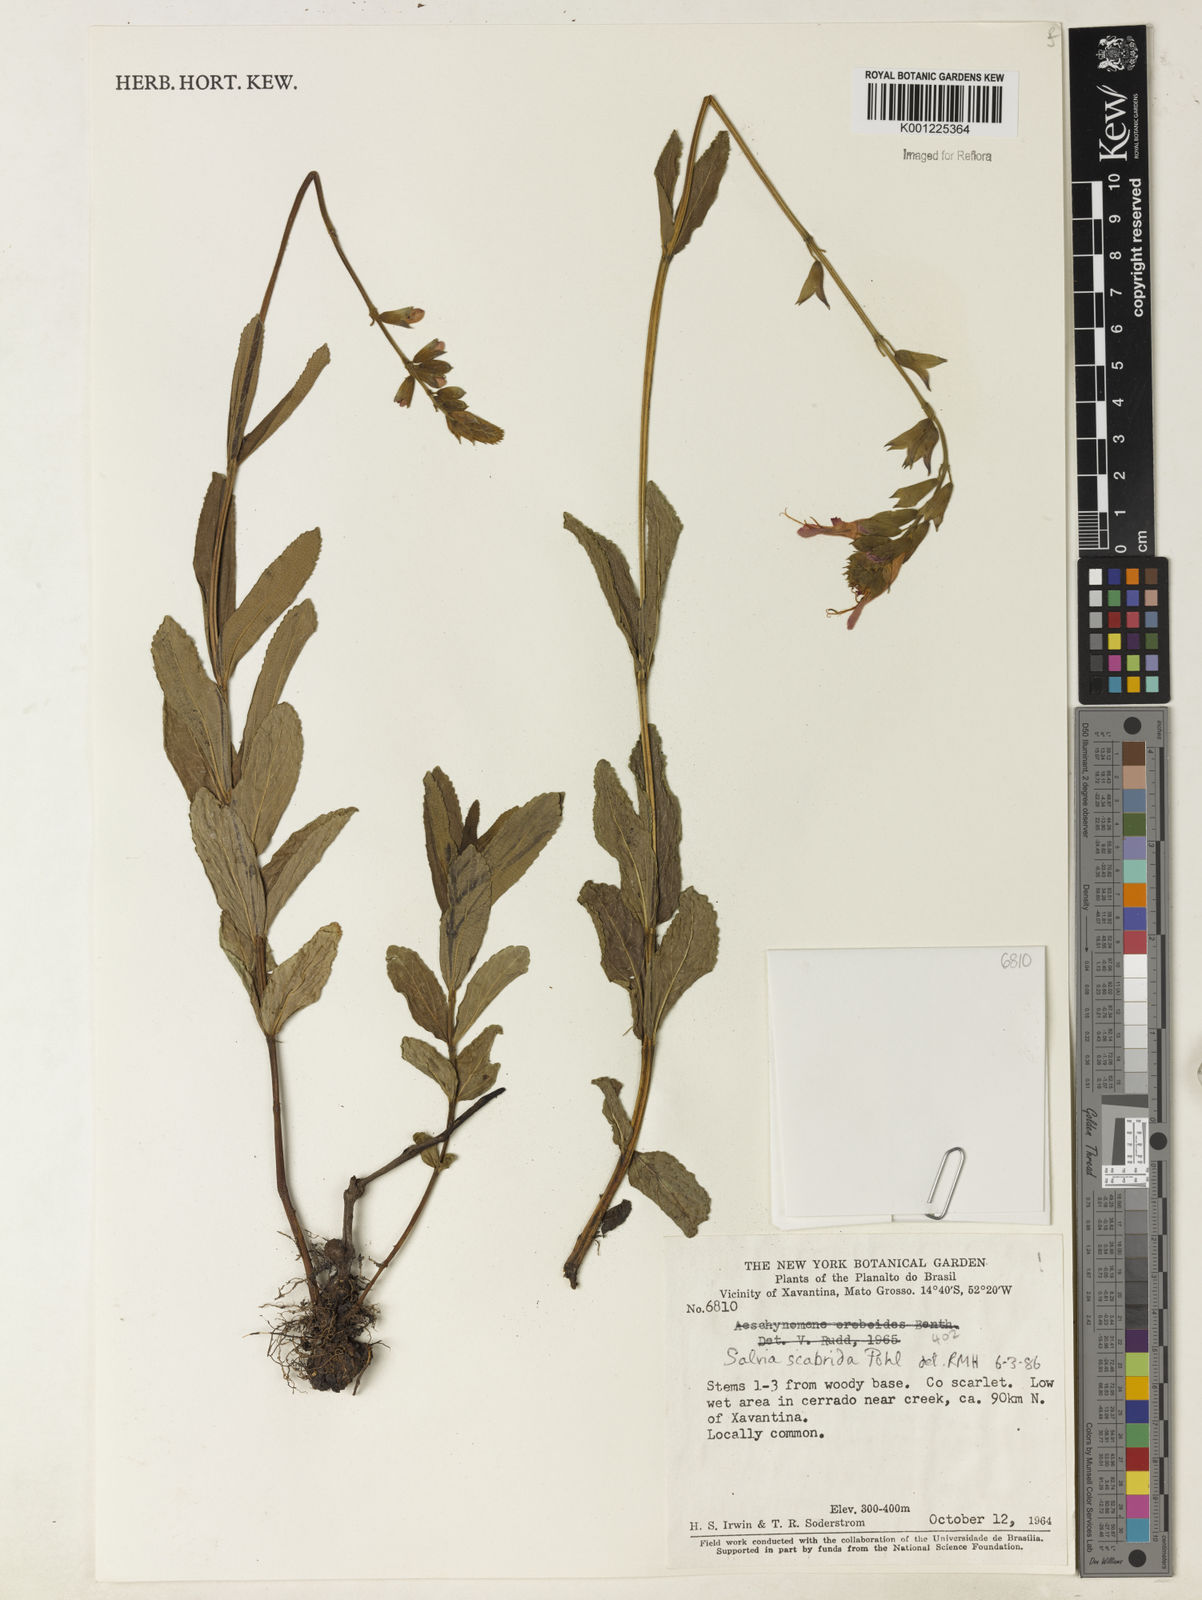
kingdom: Plantae
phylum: Tracheophyta
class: Magnoliopsida
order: Lamiales
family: Lamiaceae
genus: Salvia
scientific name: Salvia scabrida
